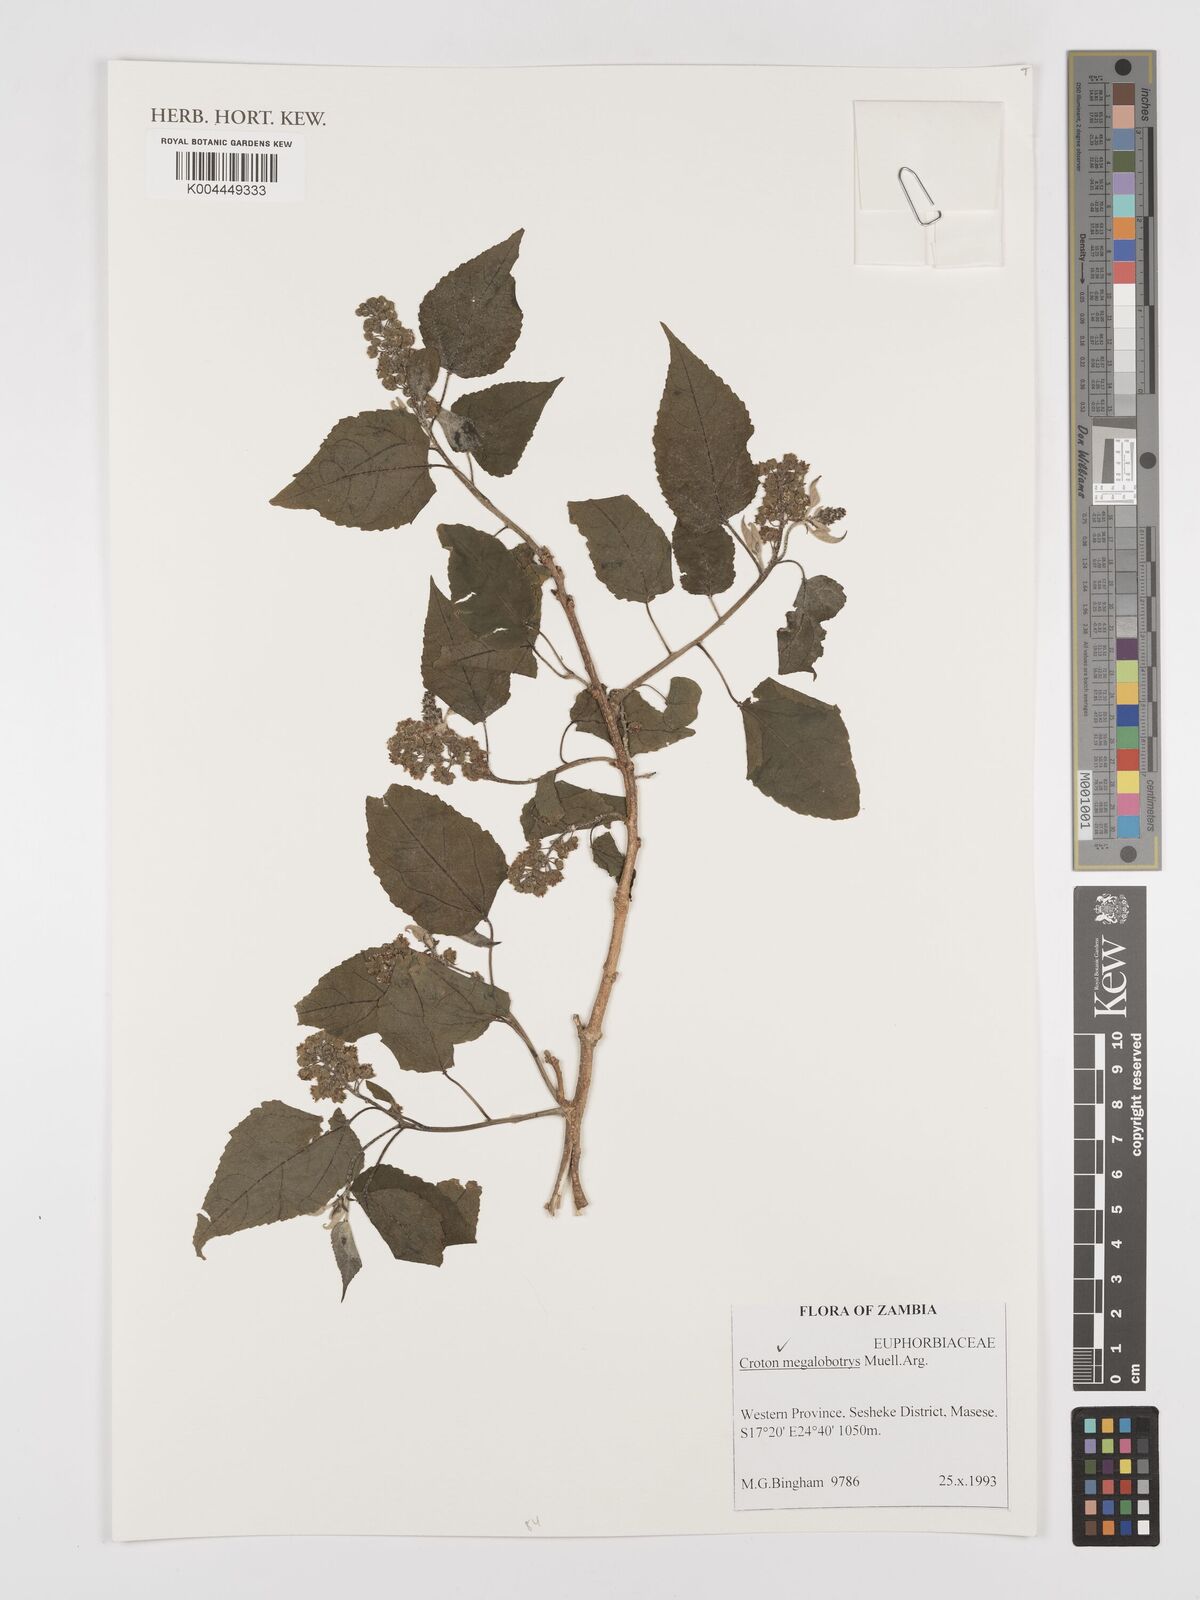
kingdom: Plantae
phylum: Tracheophyta
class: Magnoliopsida
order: Malpighiales
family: Euphorbiaceae
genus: Croton
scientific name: Croton megalobotrys
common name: Large fever berry
